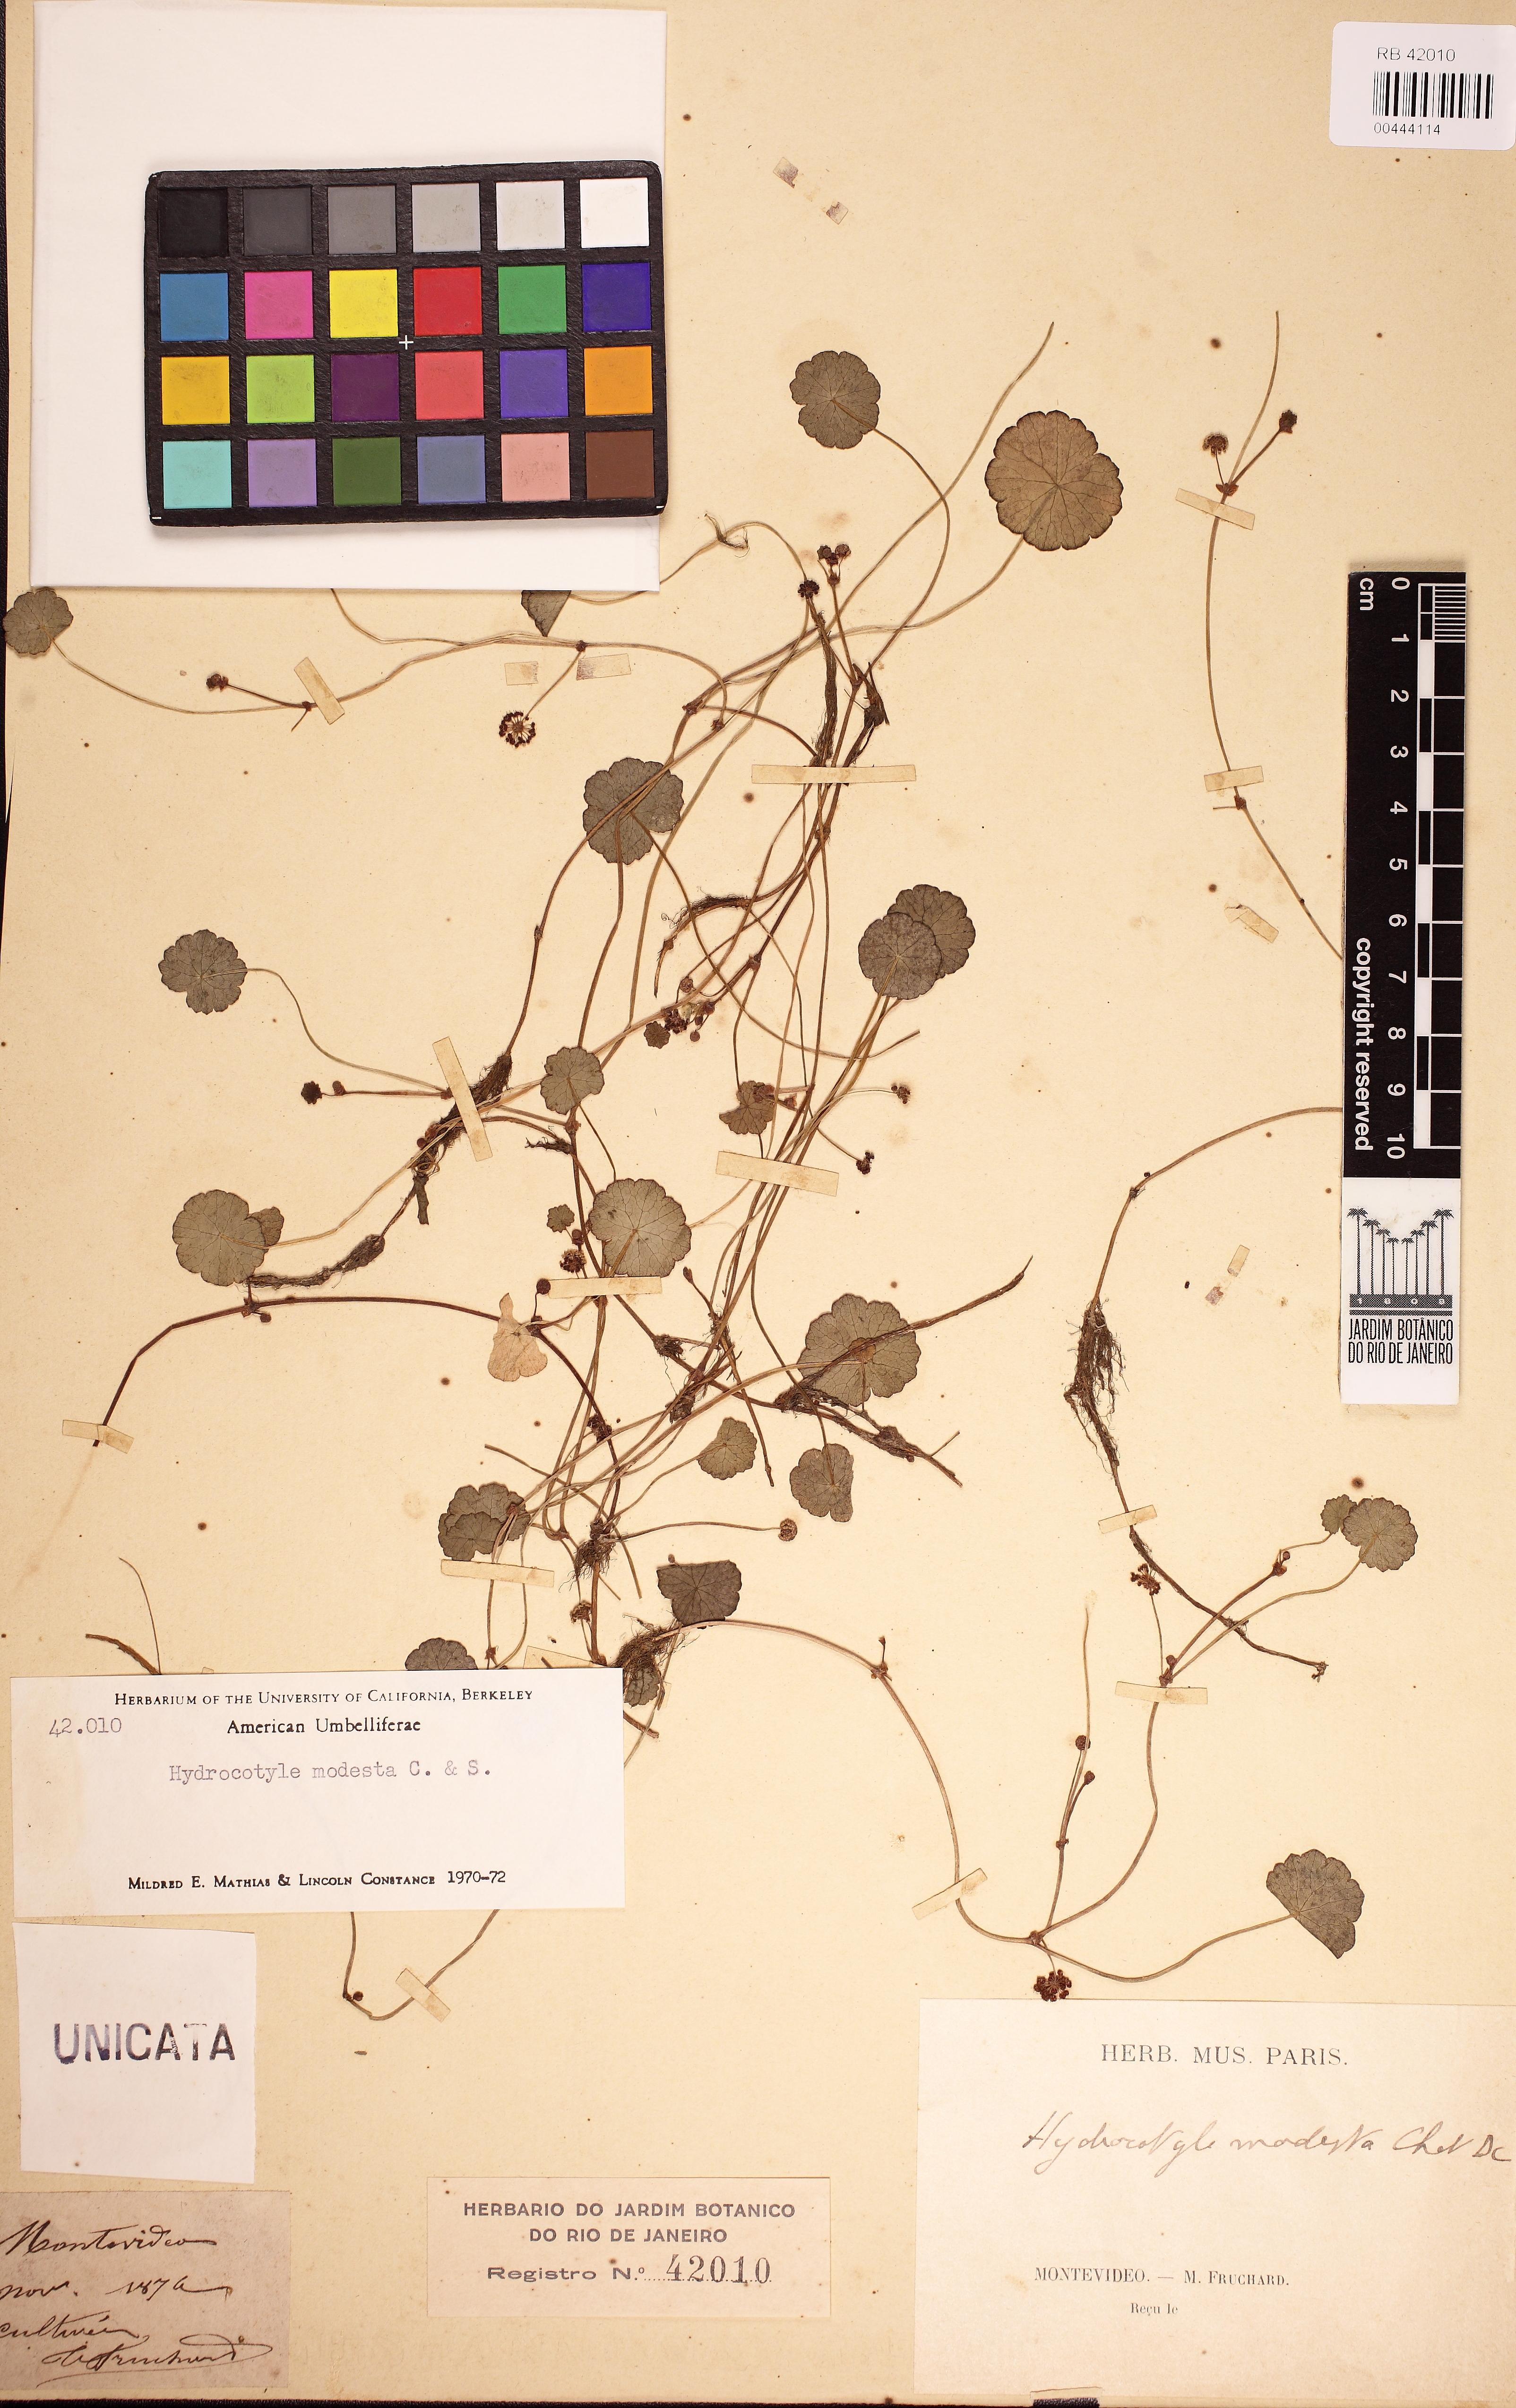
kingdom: Plantae
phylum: Tracheophyta
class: Magnoliopsida
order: Apiales
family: Araliaceae
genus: Hydrocotyle
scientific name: Hydrocotyle modesta
